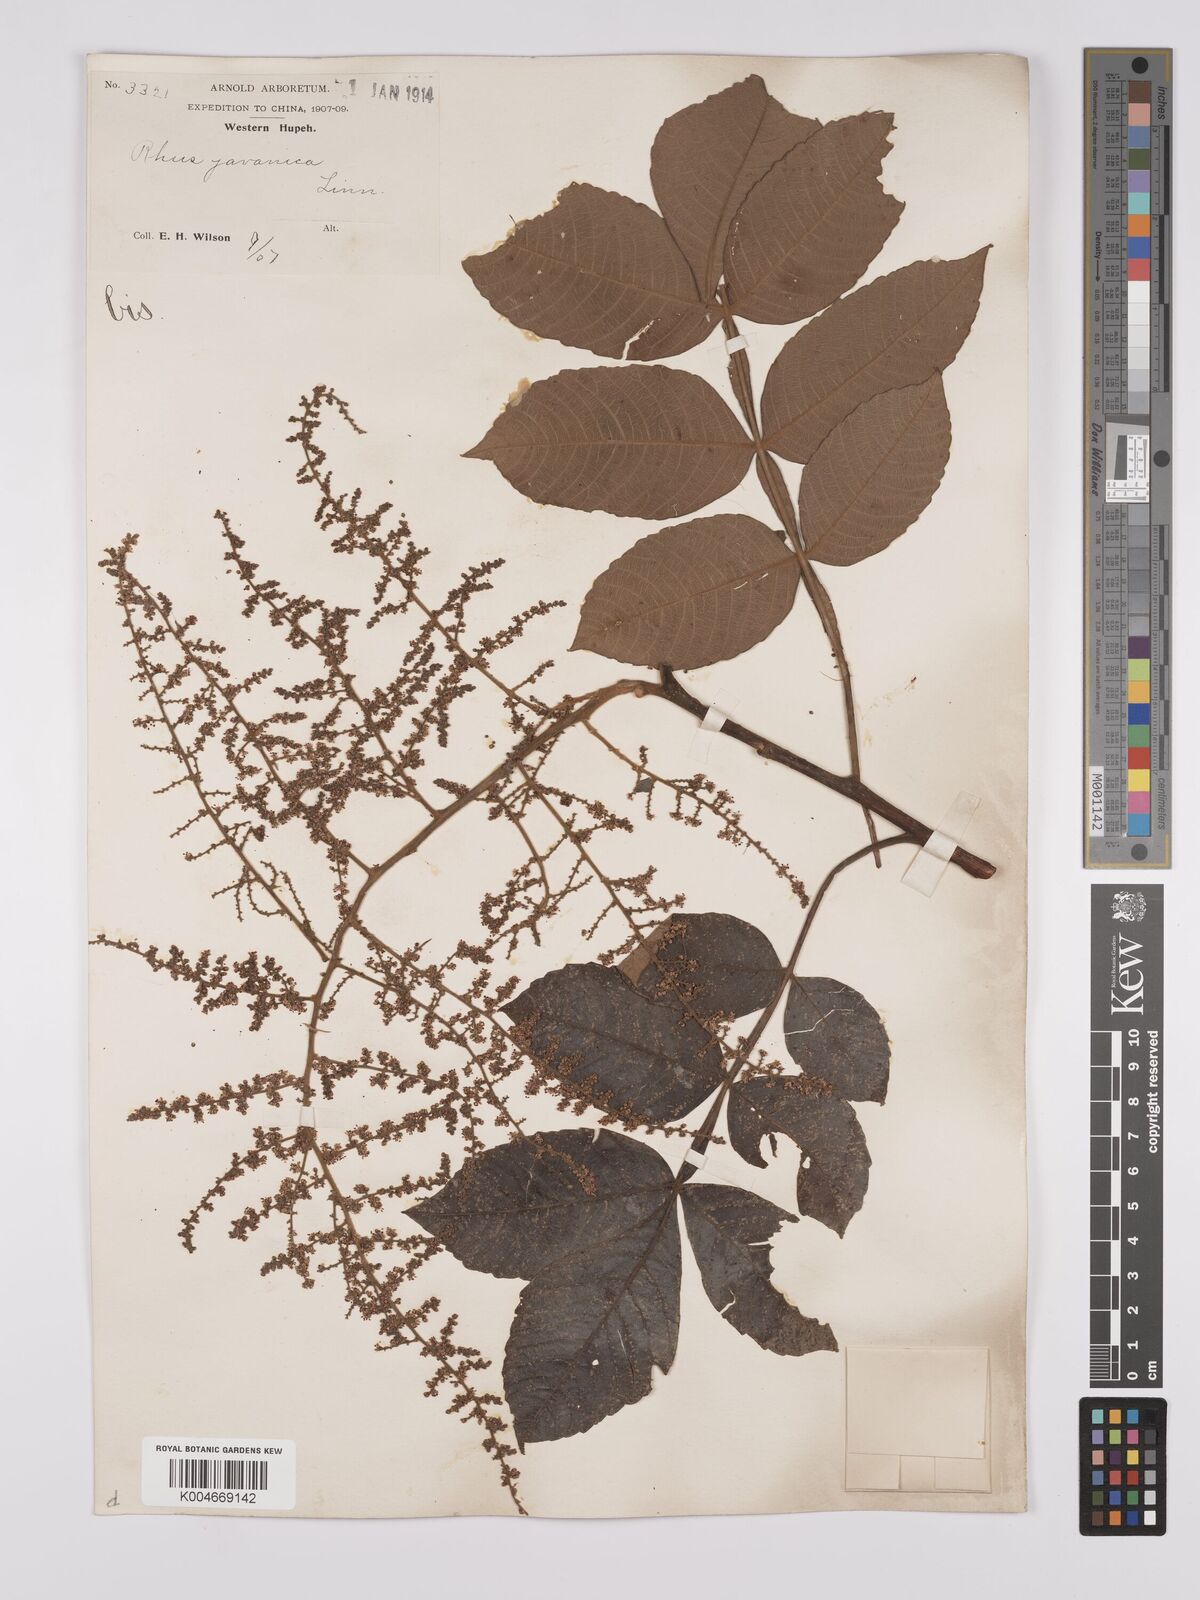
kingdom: Plantae
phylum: Tracheophyta
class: Magnoliopsida
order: Sapindales
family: Simaroubaceae
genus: Brucea
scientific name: Brucea javanica
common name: Macassar kernels
